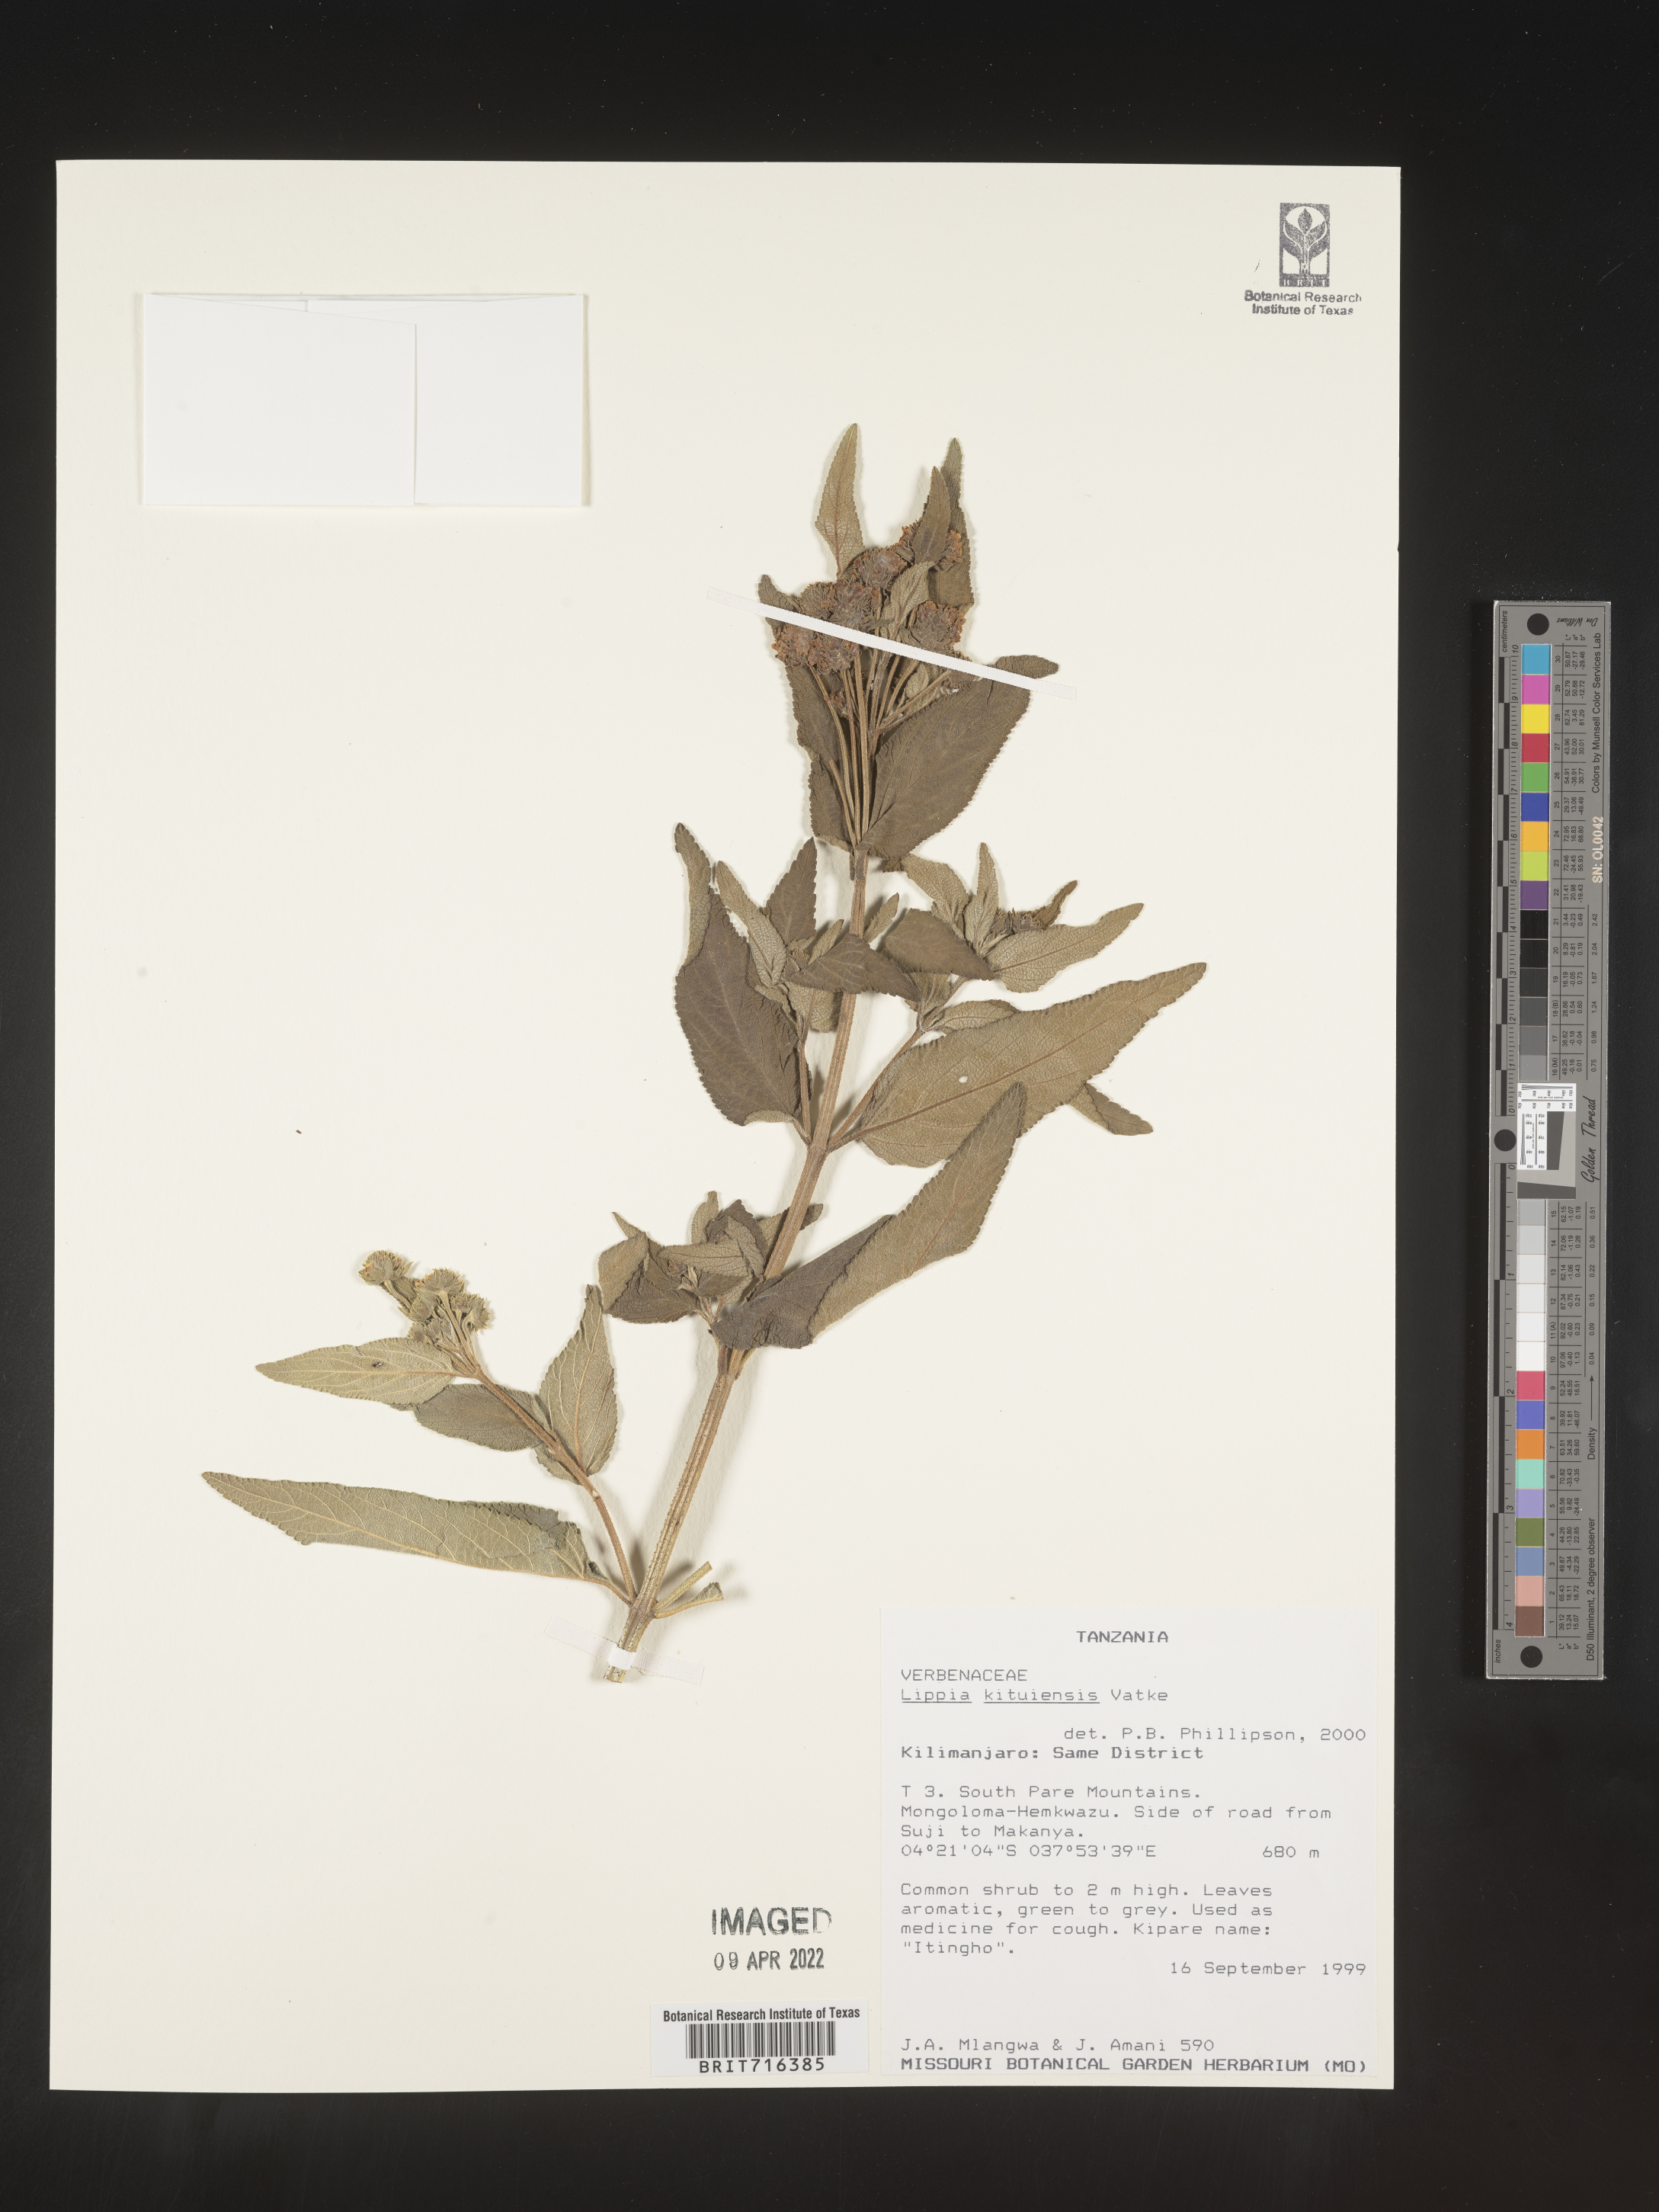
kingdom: Plantae
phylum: Tracheophyta
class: Magnoliopsida
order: Lamiales
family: Verbenaceae
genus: Lippia
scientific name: Lippia
